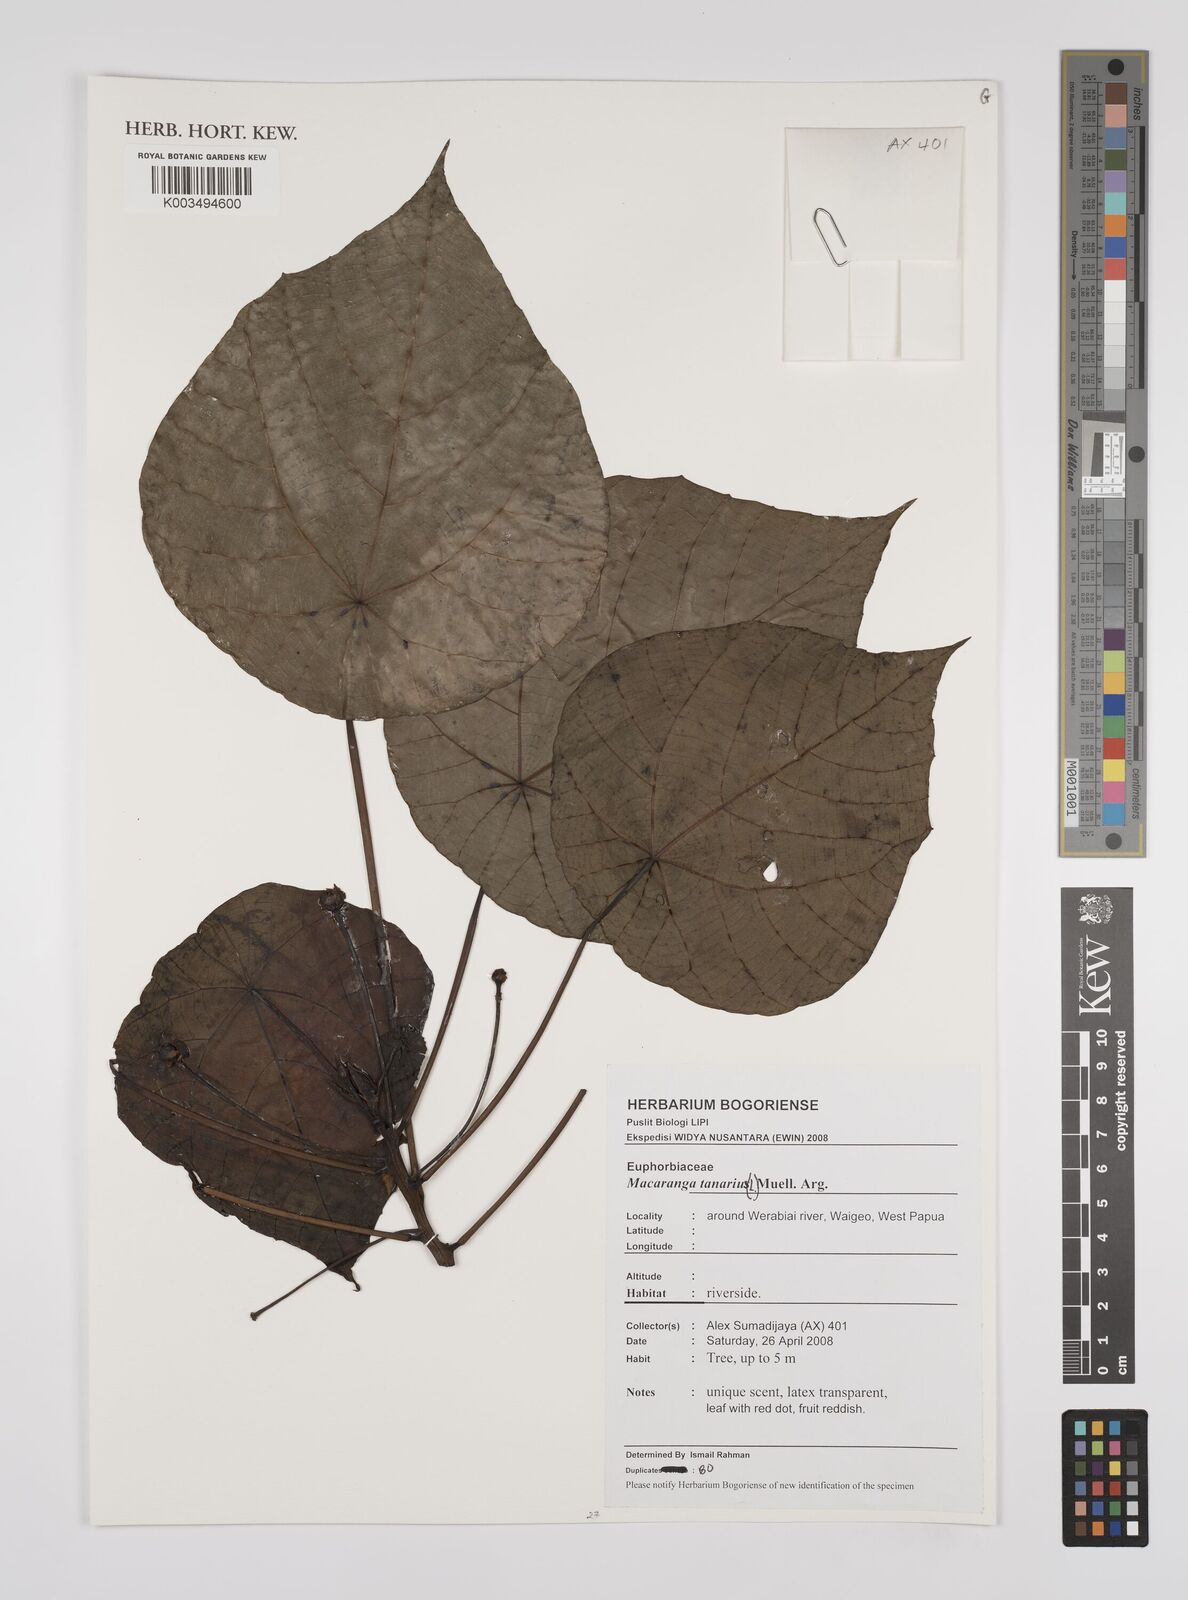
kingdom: Plantae
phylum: Tracheophyta
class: Magnoliopsida
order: Malpighiales
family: Euphorbiaceae
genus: Macaranga
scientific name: Macaranga tanarius
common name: Parasol leaf tree
